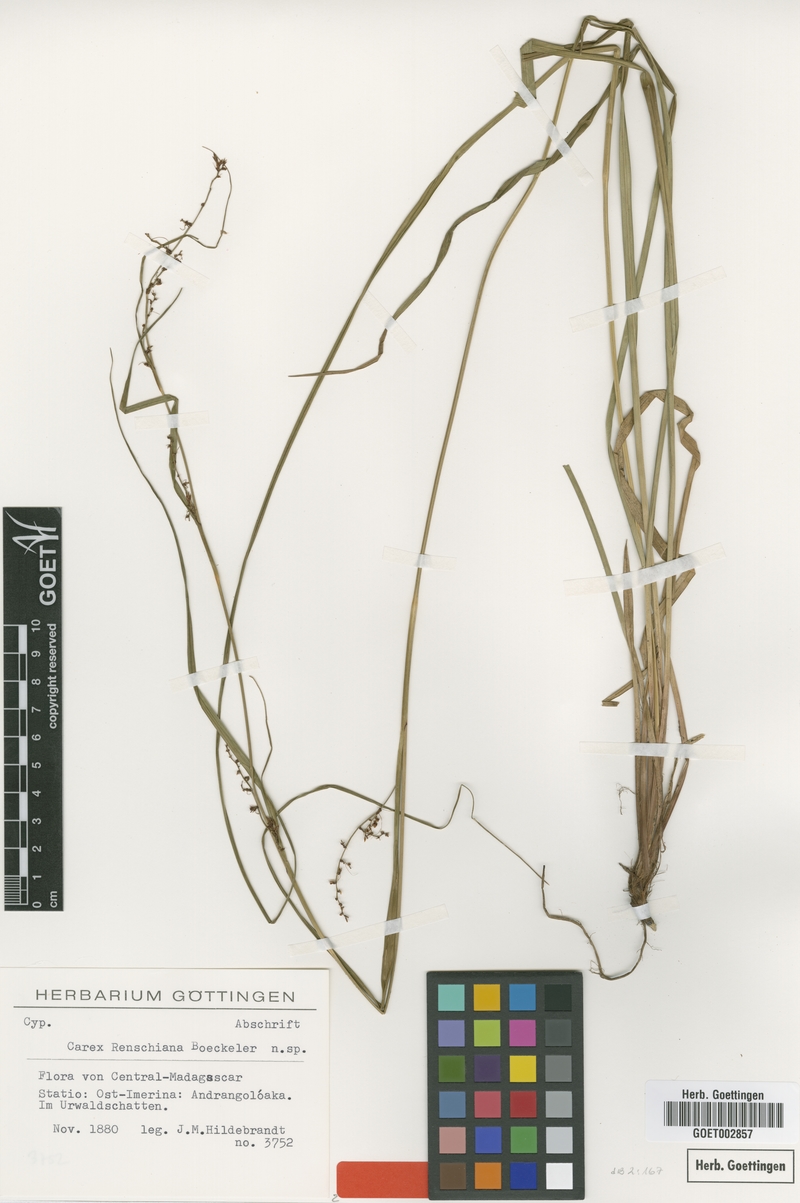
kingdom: Plantae
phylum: Tracheophyta
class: Liliopsida
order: Poales
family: Cyperaceae
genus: Carex
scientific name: Carex renschiana
